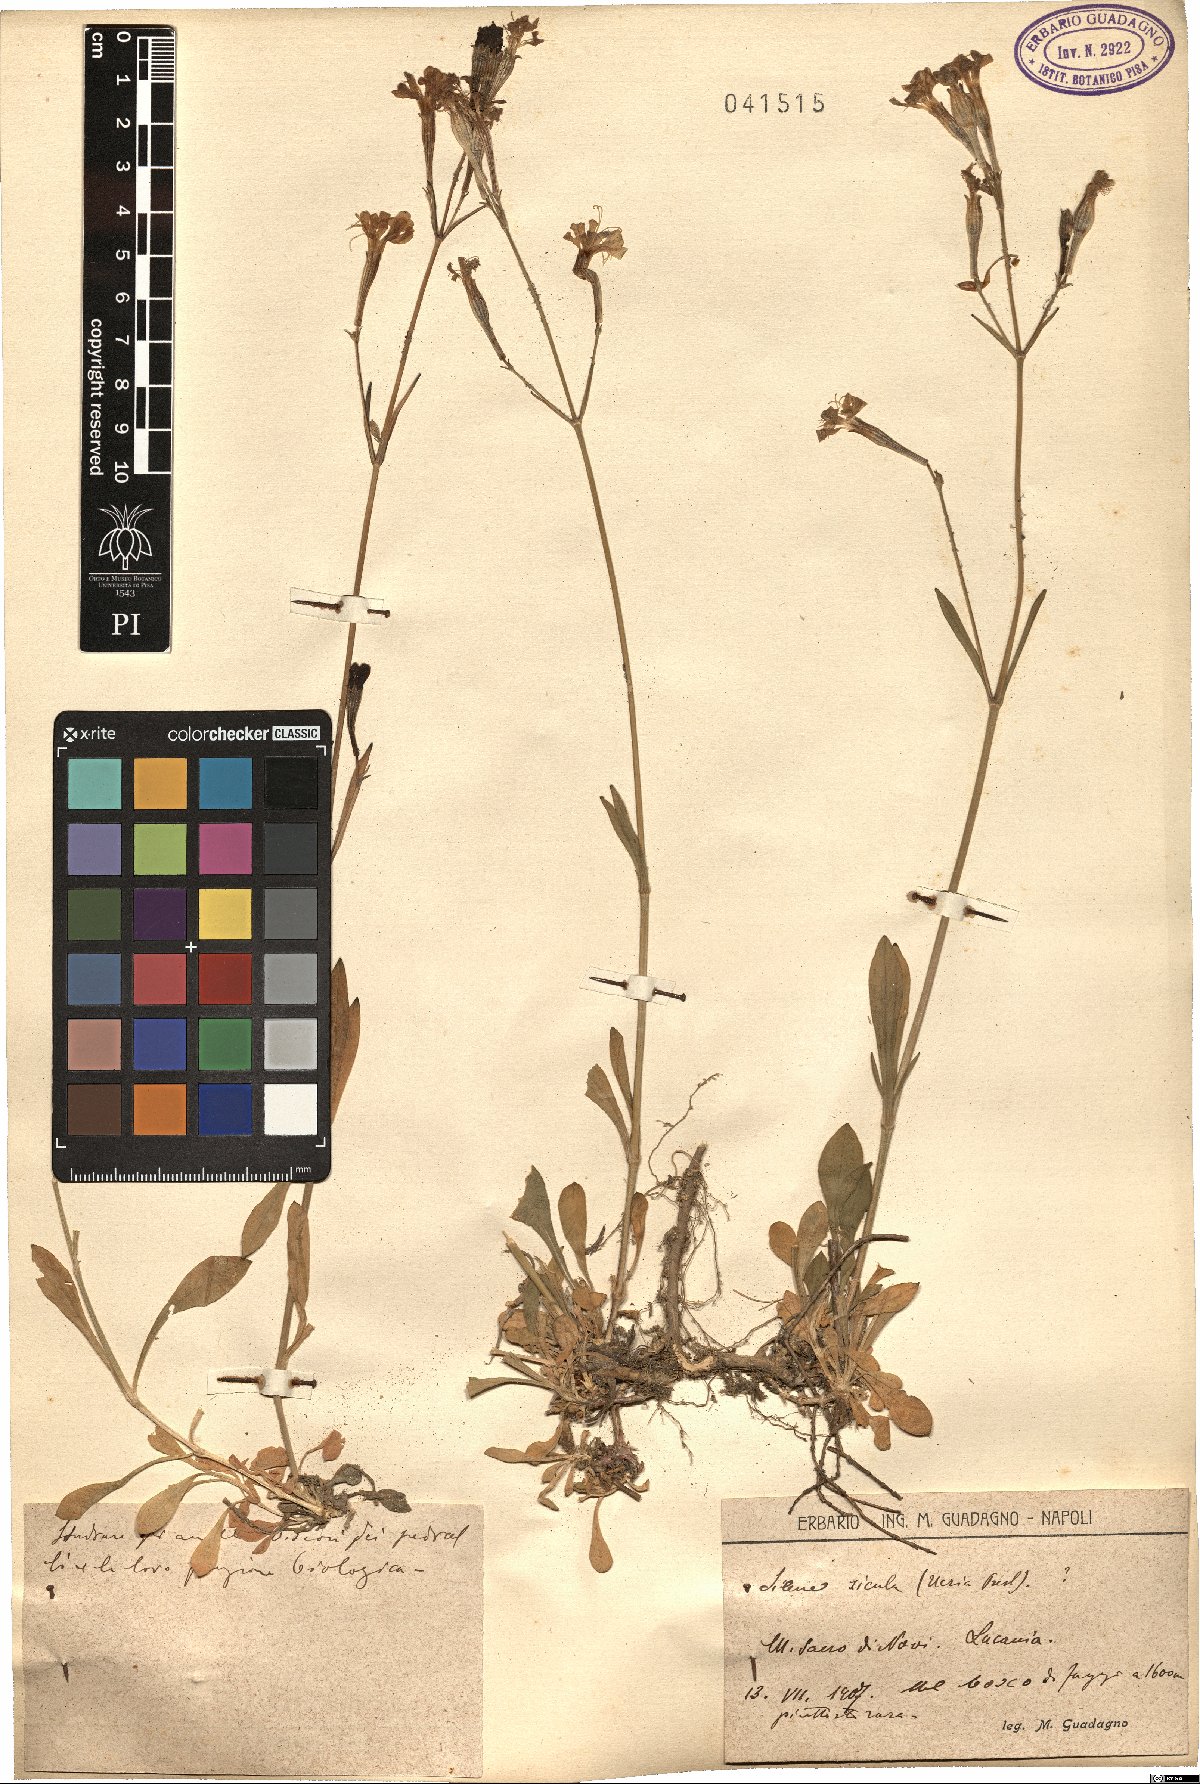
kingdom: Plantae
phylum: Tracheophyta
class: Magnoliopsida
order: Caryophyllales
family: Caryophyllaceae
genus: Silene
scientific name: Silene italica
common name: Italian catchfly
